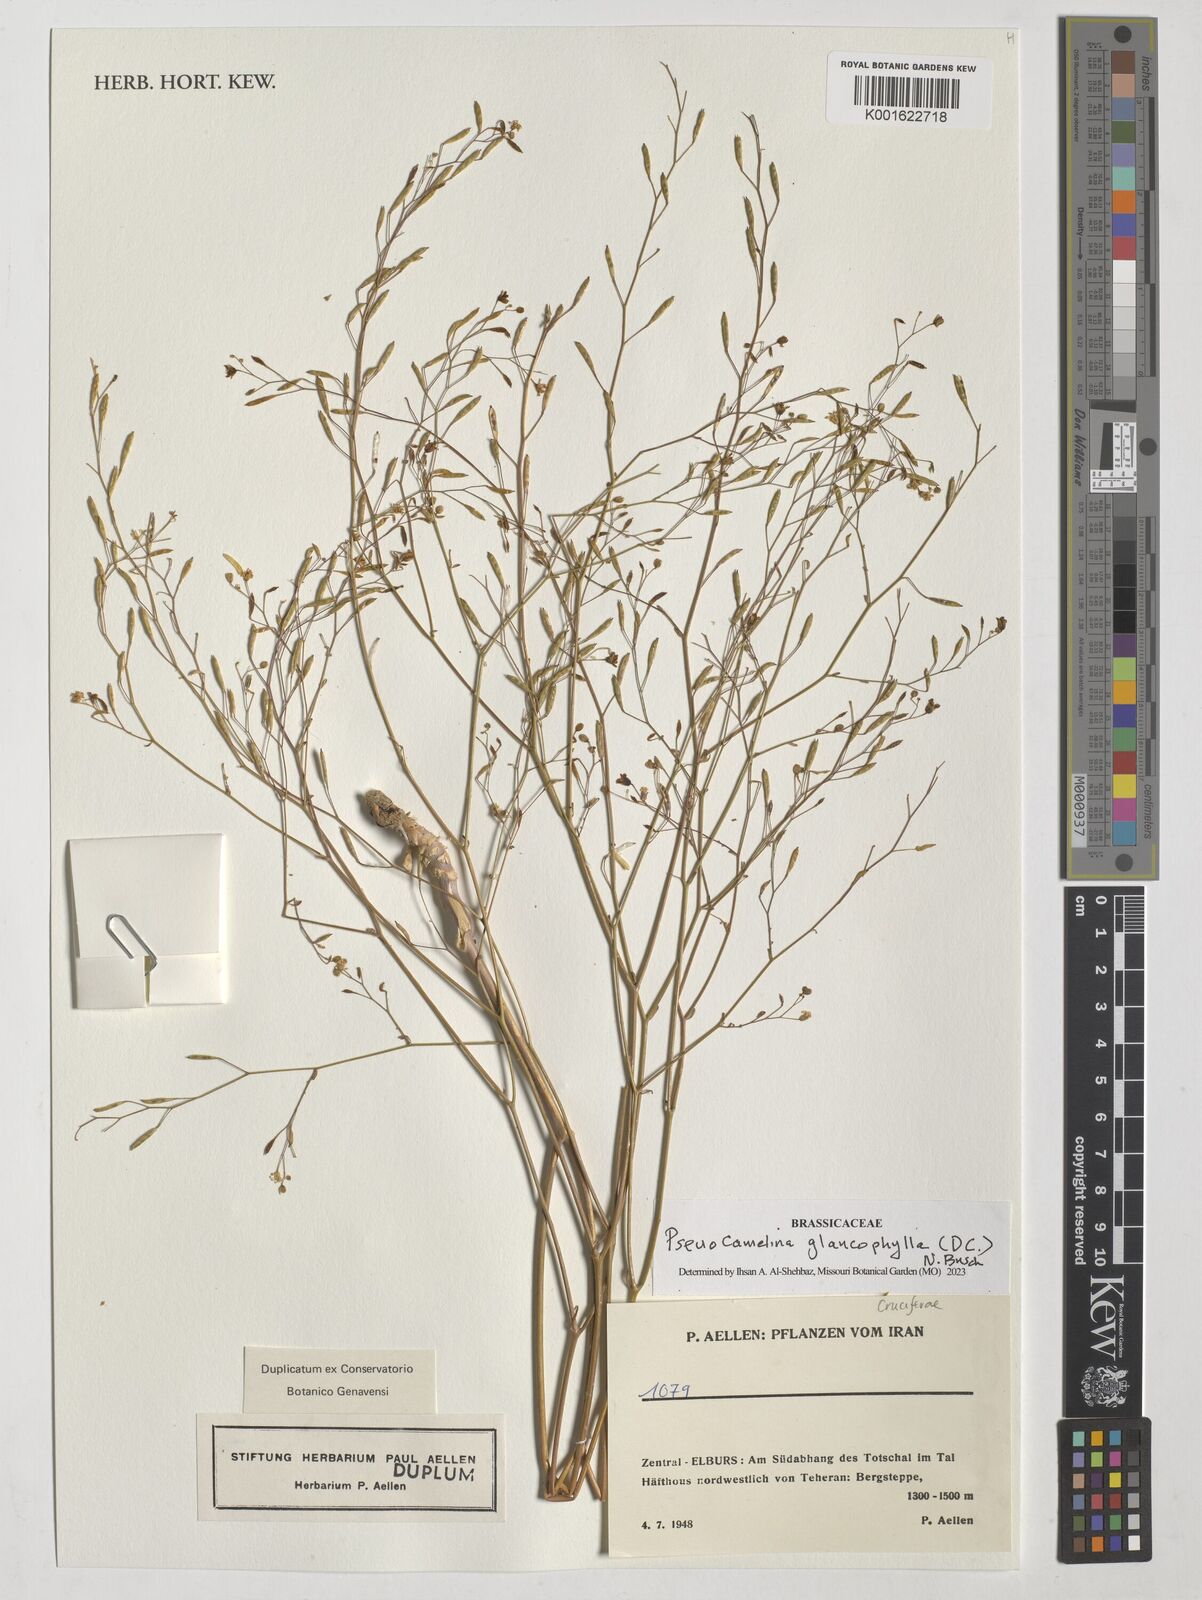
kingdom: Plantae
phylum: Tracheophyta
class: Magnoliopsida
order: Brassicales
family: Brassicaceae
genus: Pseudocamelina
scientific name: Pseudocamelina glaucophylla
